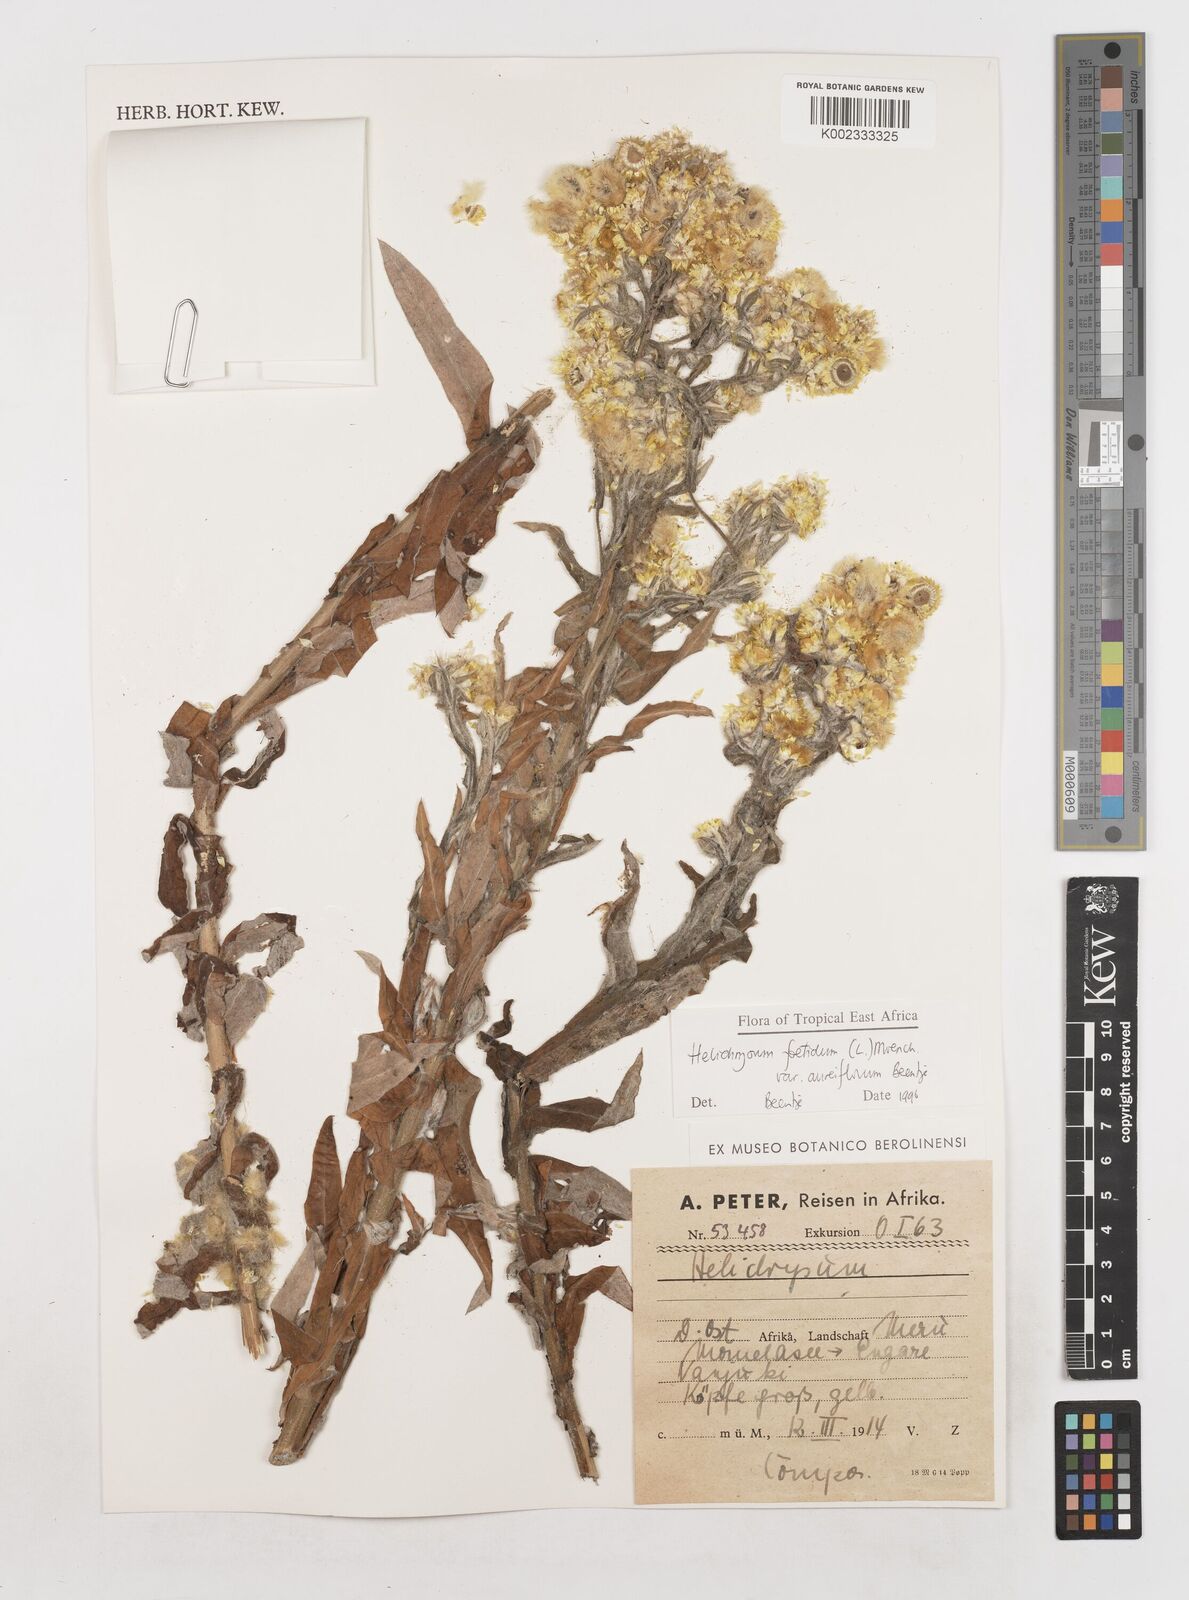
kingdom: Plantae
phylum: Tracheophyta
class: Magnoliopsida
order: Asterales
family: Asteraceae
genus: Helichrysum
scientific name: Helichrysum foetidum
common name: Stinking everlasting
